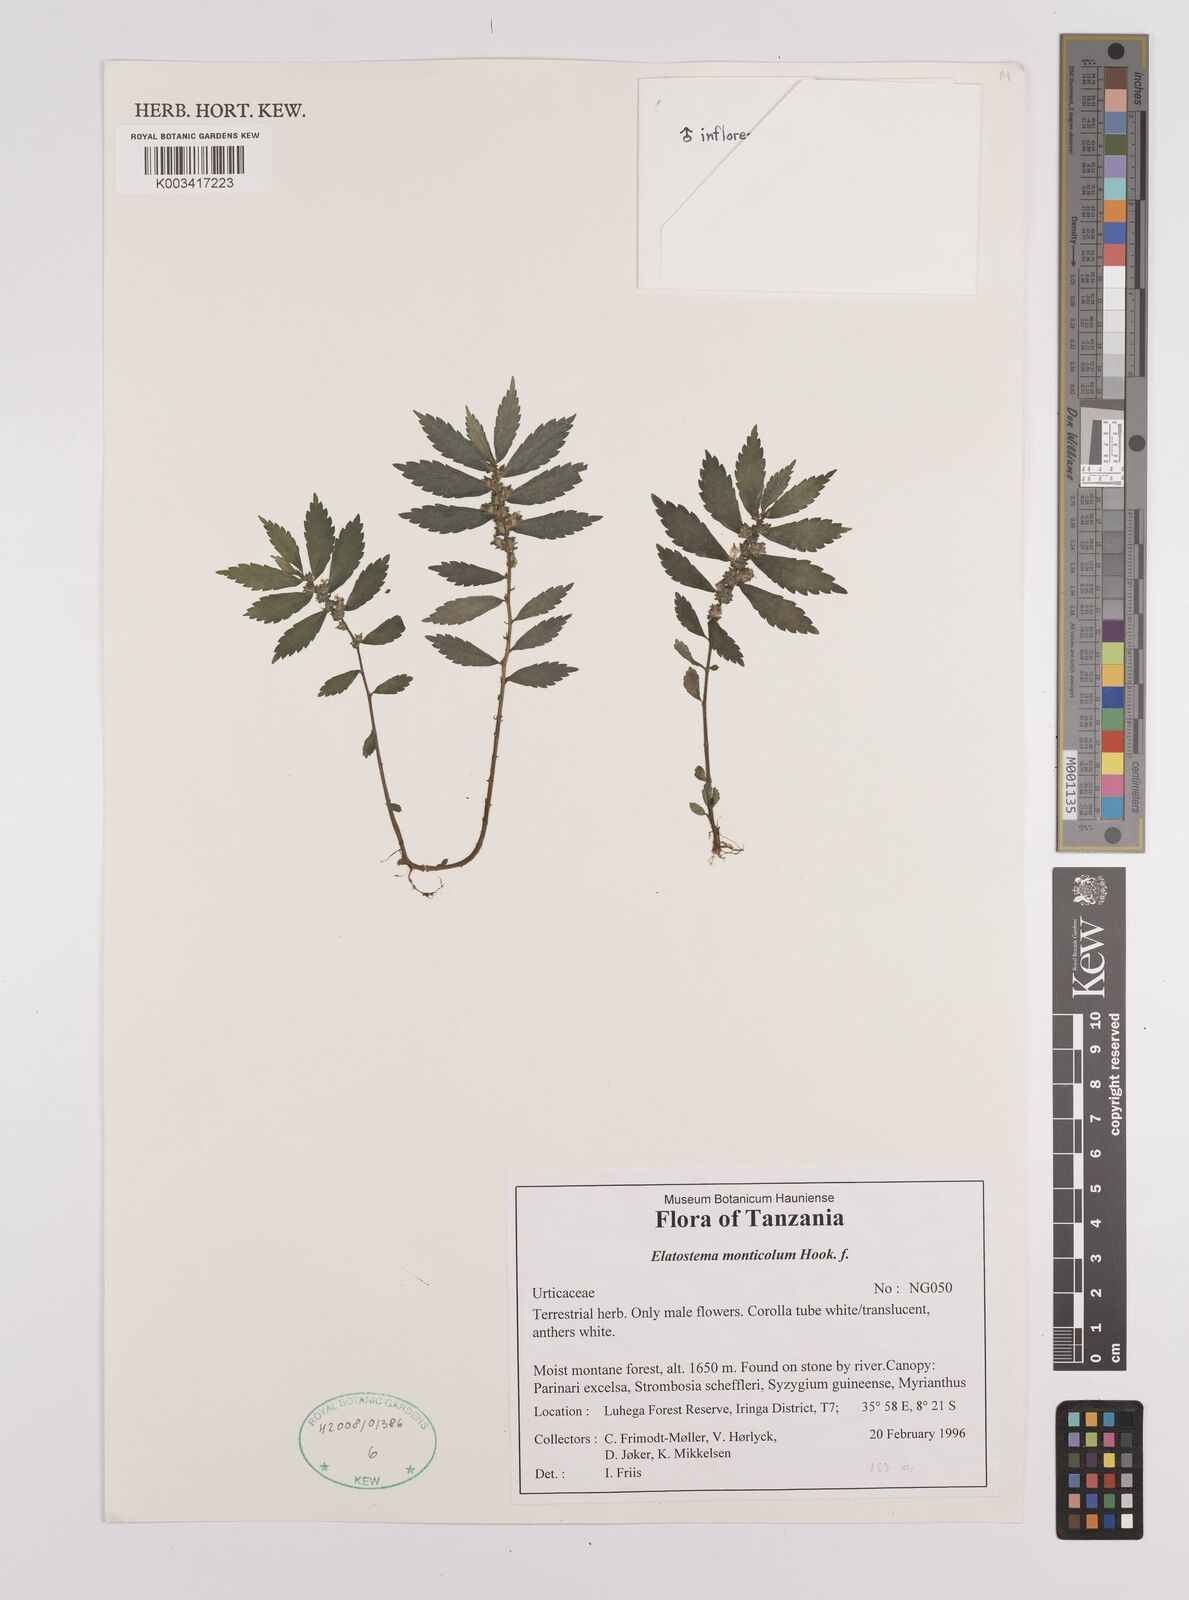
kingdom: Plantae
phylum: Tracheophyta
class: Magnoliopsida
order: Rosales
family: Urticaceae
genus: Elatostema
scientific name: Elatostema monticola
